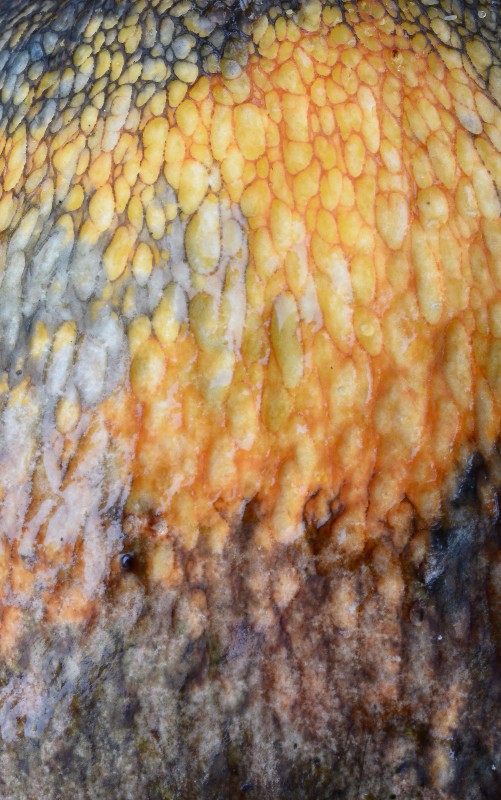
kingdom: Fungi
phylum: Basidiomycota
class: Agaricomycetes
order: Boletales
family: Boletaceae
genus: Suillellus
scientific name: Suillellus luridus
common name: netstokket indigorørhat
